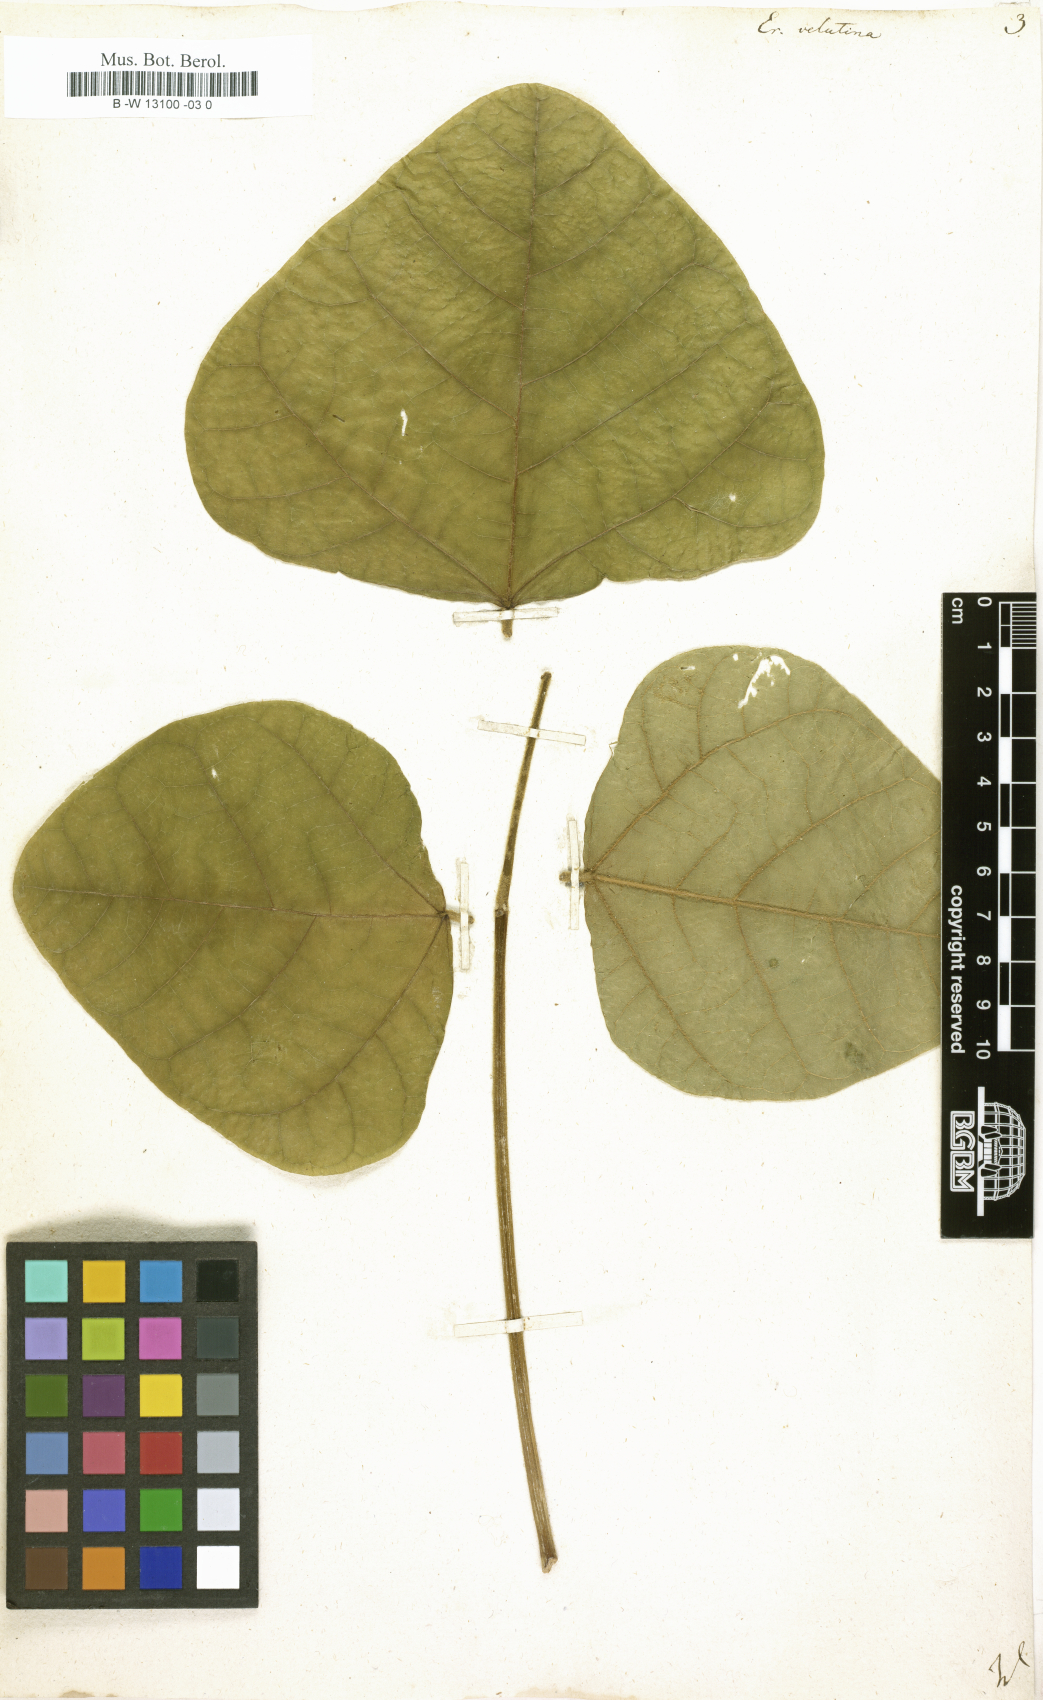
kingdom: Plantae
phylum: Tracheophyta
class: Magnoliopsida
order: Fabales
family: Fabaceae
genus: Erythrina
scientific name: Erythrina velutina
